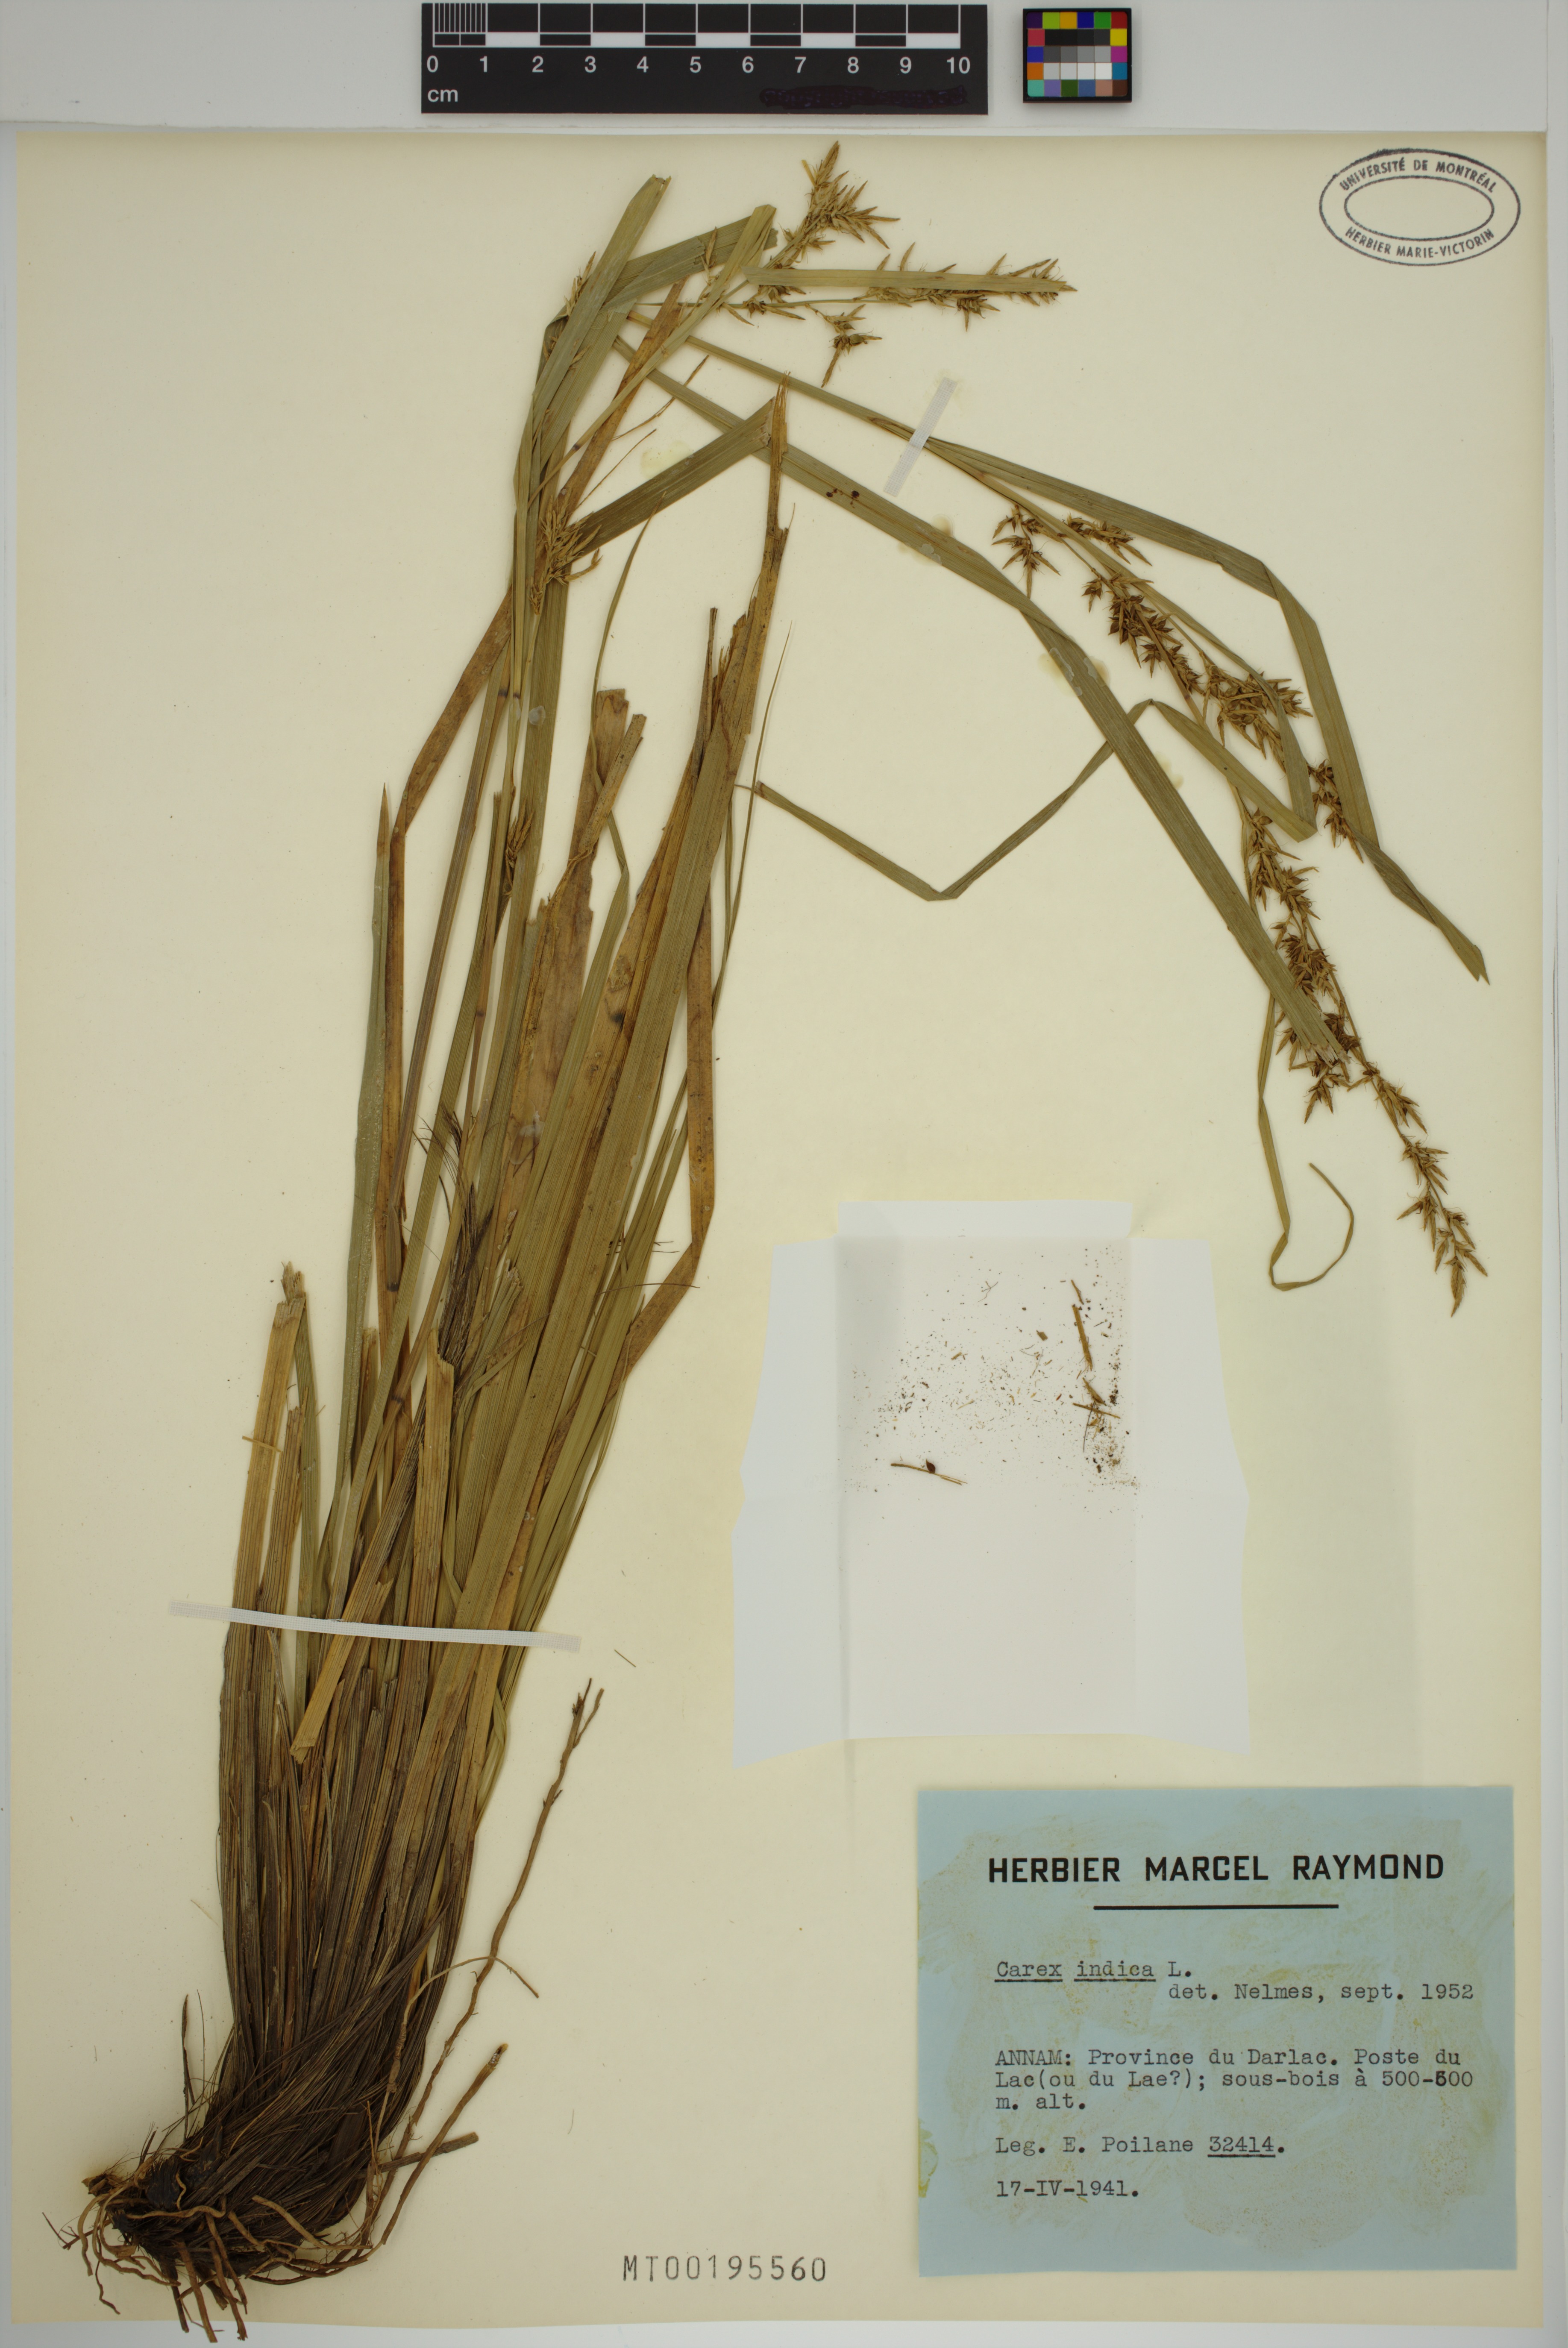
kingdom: Plantae
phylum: Tracheophyta
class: Liliopsida
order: Poales
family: Cyperaceae
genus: Carex
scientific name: Carex indica
